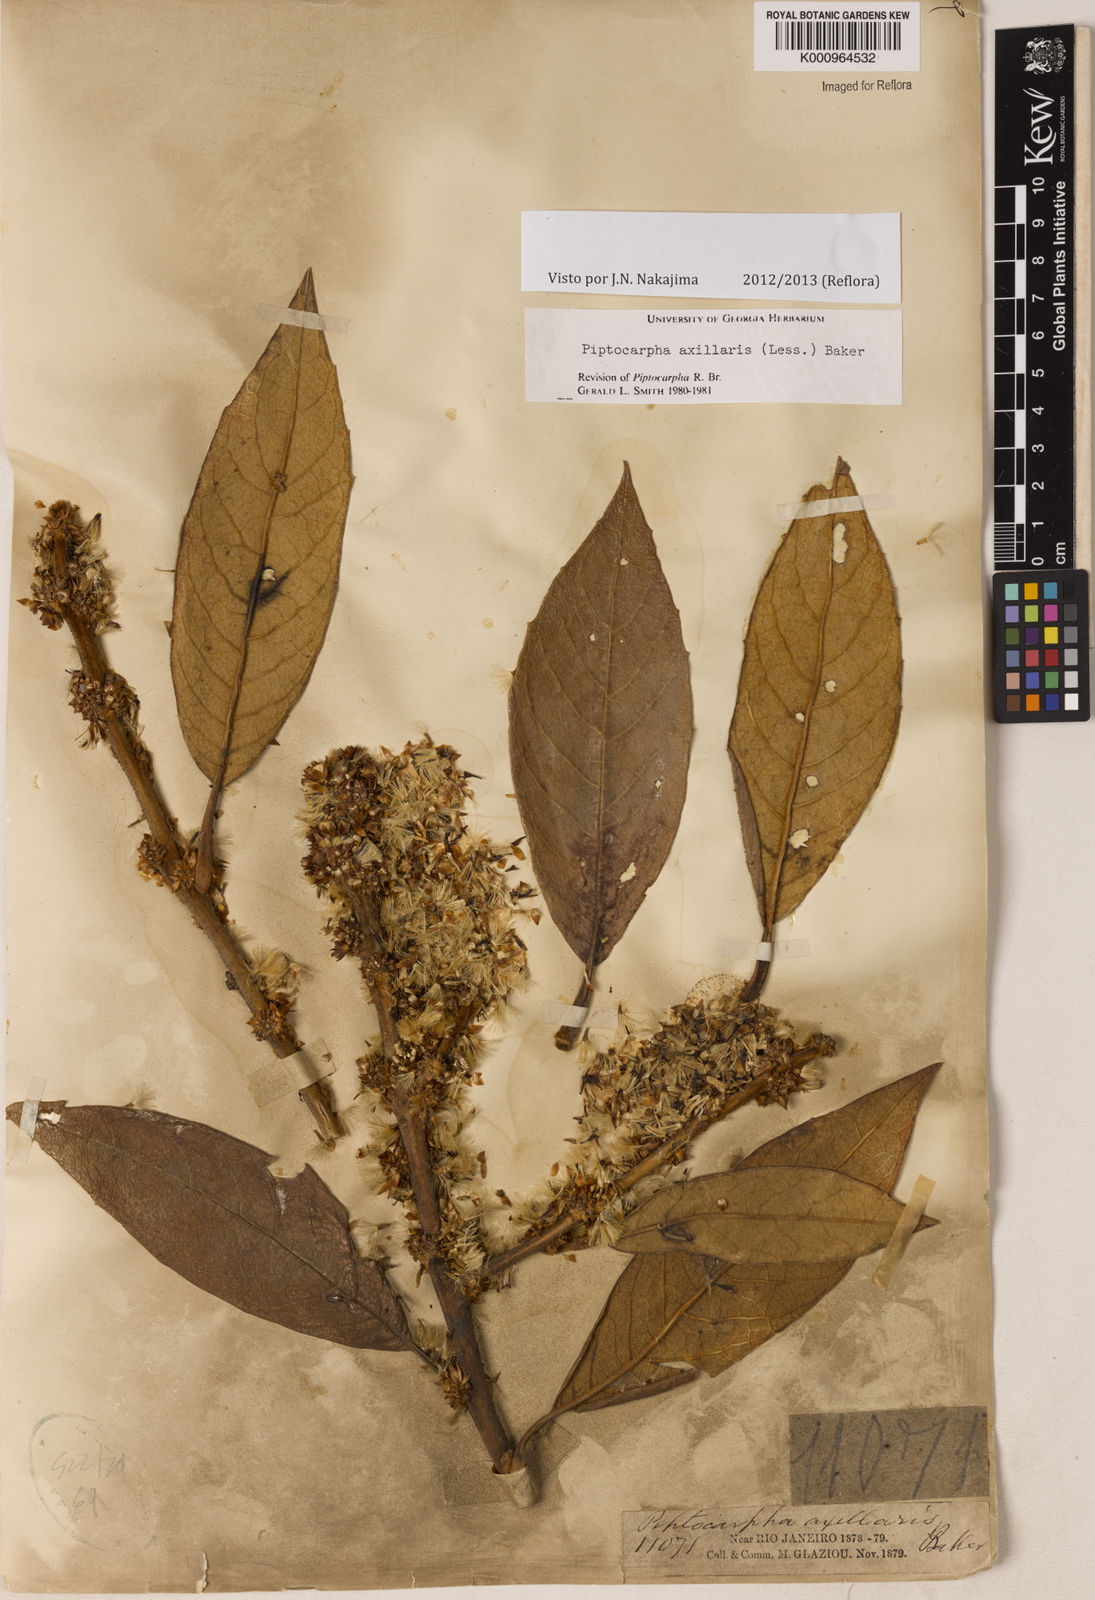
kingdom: Plantae
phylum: Tracheophyta
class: Magnoliopsida
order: Asterales
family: Asteraceae
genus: Piptocarpha
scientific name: Piptocarpha axillaris
